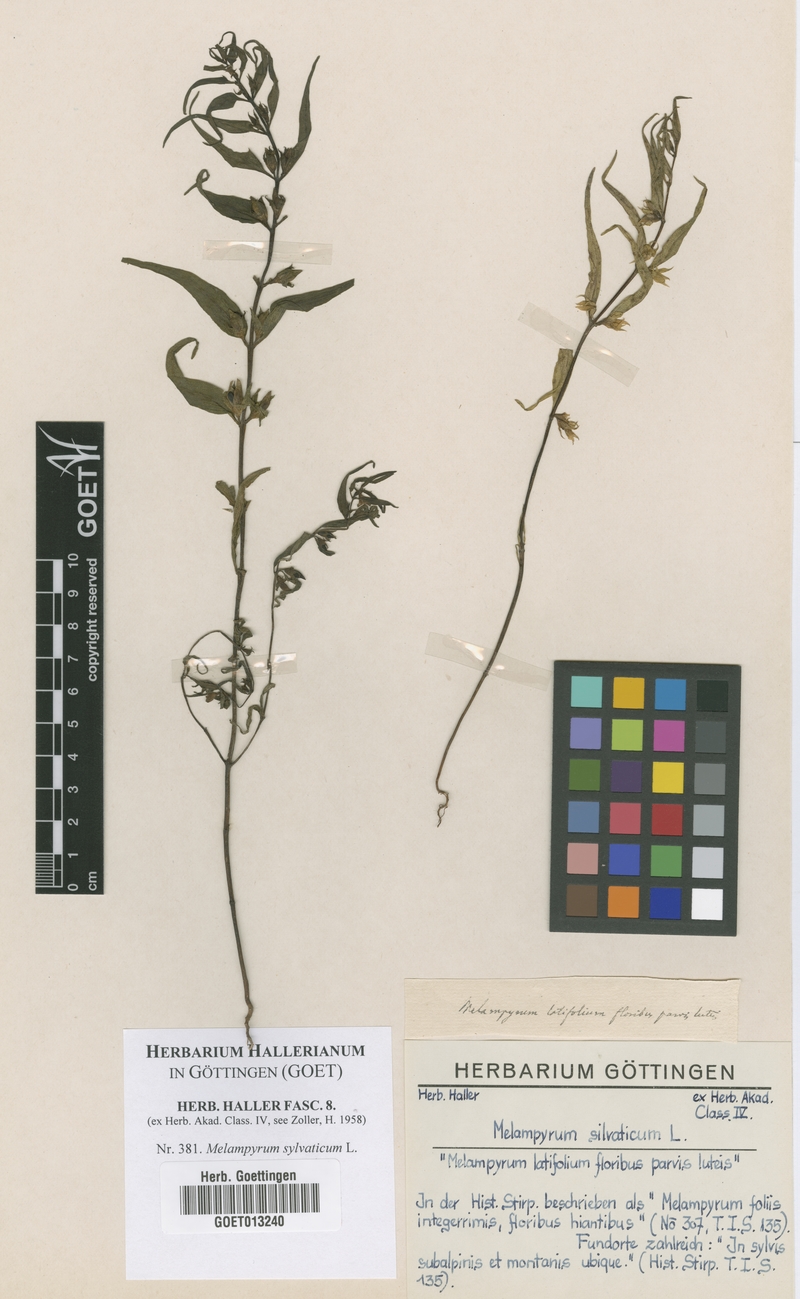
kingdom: Plantae
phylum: Tracheophyta
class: Magnoliopsida
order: Lamiales
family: Orobanchaceae
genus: Melampyrum
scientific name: Melampyrum sylvaticum
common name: Small cow-wheat
